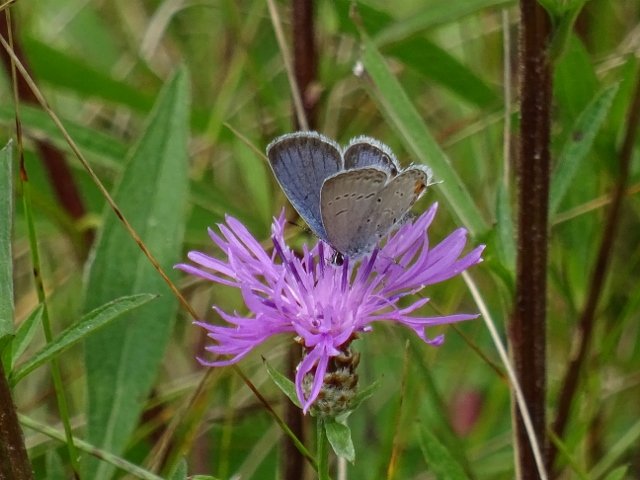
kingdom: Animalia
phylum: Arthropoda
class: Insecta
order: Lepidoptera
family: Lycaenidae
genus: Elkalyce
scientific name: Elkalyce comyntas
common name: Eastern Tailed-Blue
